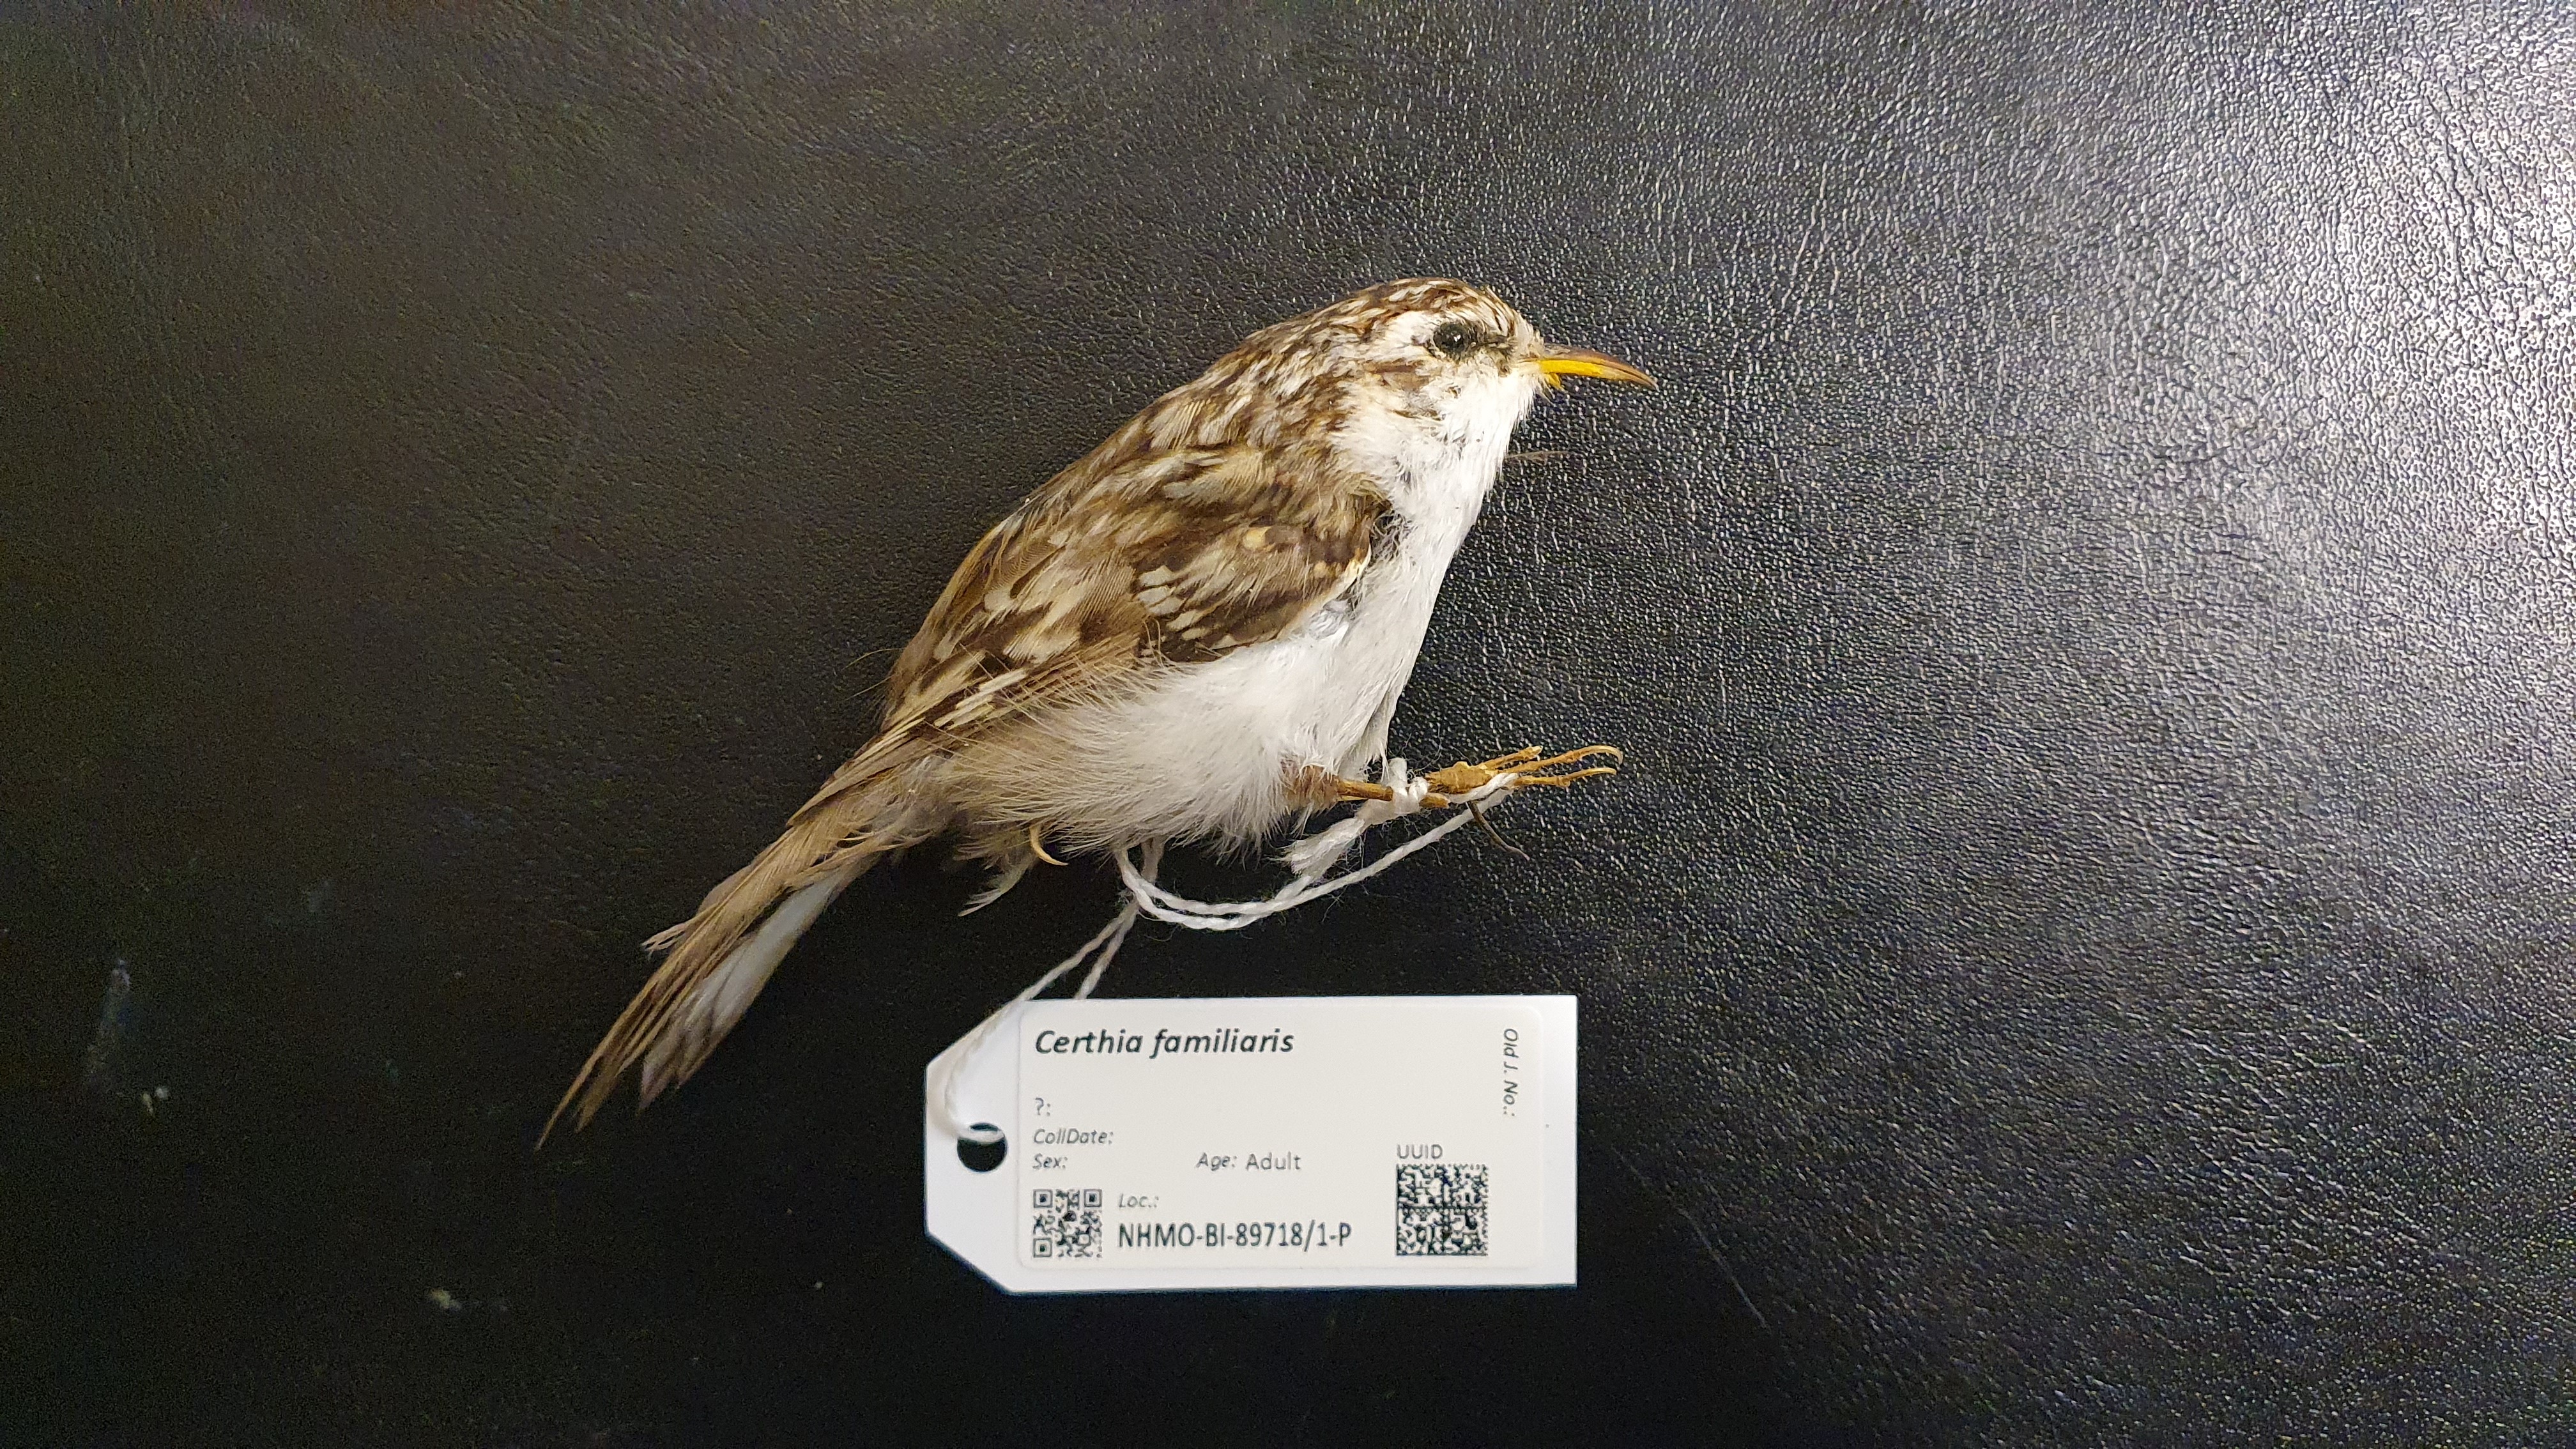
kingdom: Animalia
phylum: Chordata
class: Aves
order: Passeriformes
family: Certhiidae
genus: Certhia
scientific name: Certhia familiaris
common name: Eurasian treecreeper
